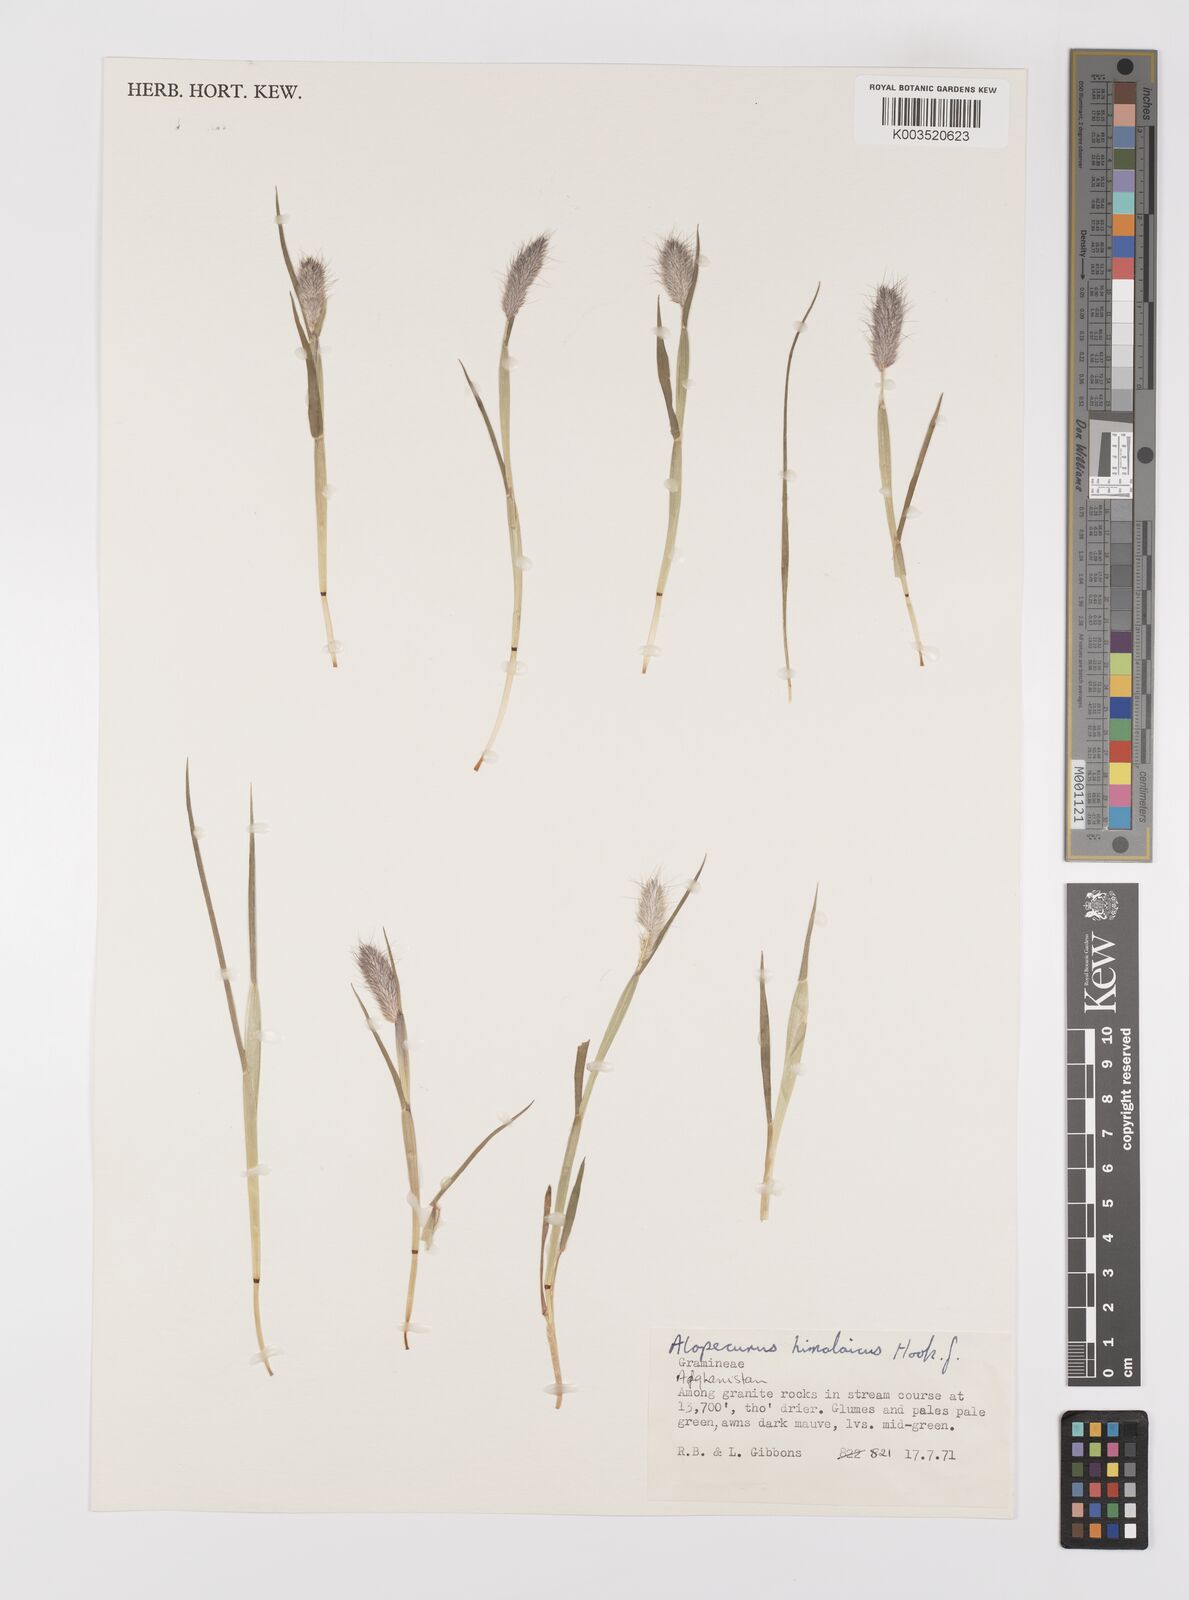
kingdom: Plantae
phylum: Tracheophyta
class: Liliopsida
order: Poales
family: Poaceae
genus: Alopecurus
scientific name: Alopecurus himalaicus
